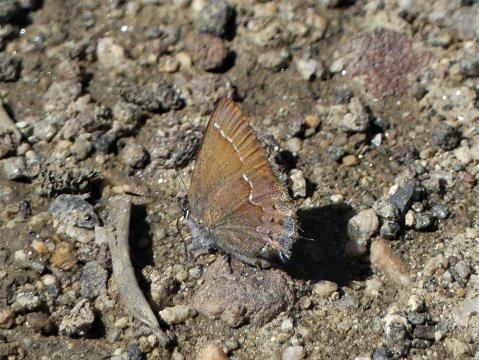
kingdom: Animalia
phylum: Arthropoda
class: Insecta
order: Lepidoptera
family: Lycaenidae
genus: Mitoura
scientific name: Mitoura gryneus
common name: Juniper Hairstreak
